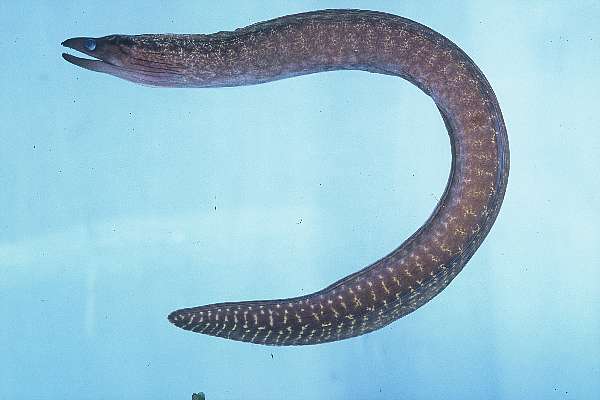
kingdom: Animalia
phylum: Chordata
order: Anguilliformes
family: Muraenidae
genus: Gymnothorax
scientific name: Gymnothorax margaritophorus
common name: Blotch-necked moray
